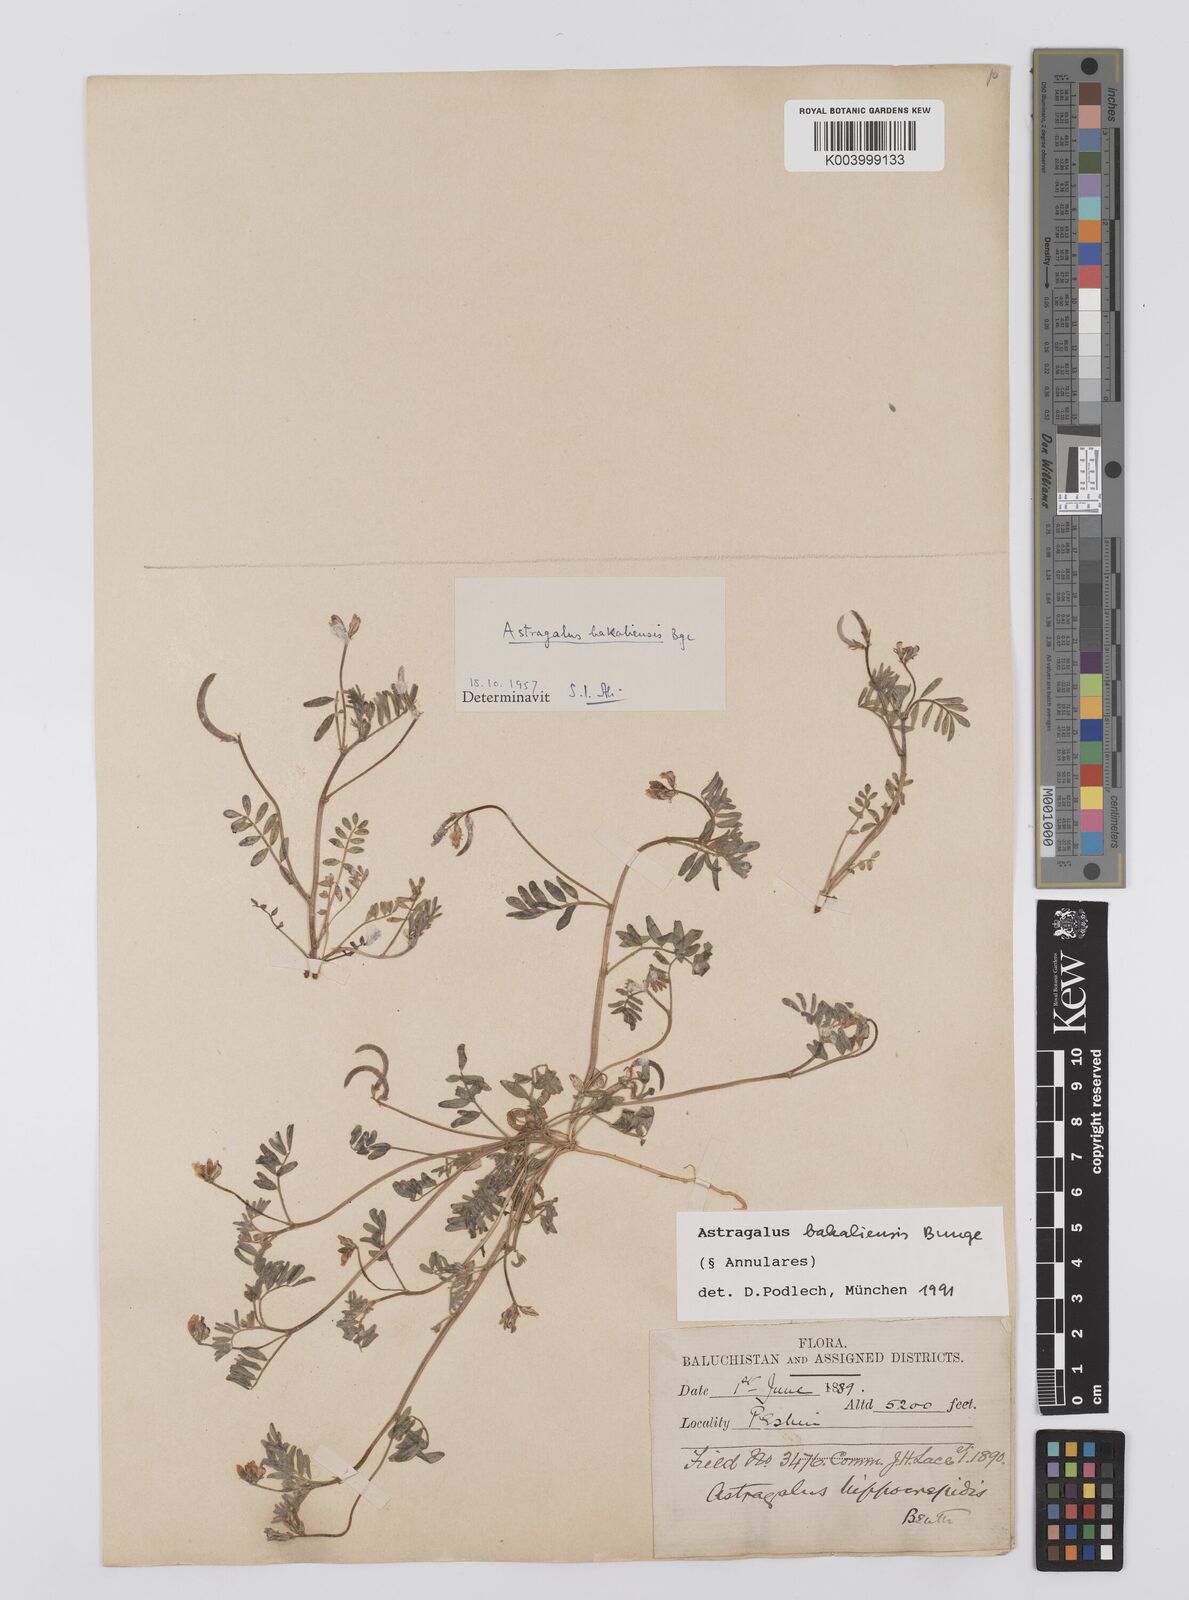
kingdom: Plantae
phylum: Tracheophyta
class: Magnoliopsida
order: Fabales
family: Fabaceae
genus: Astragalus
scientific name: Astragalus bakaliensis
